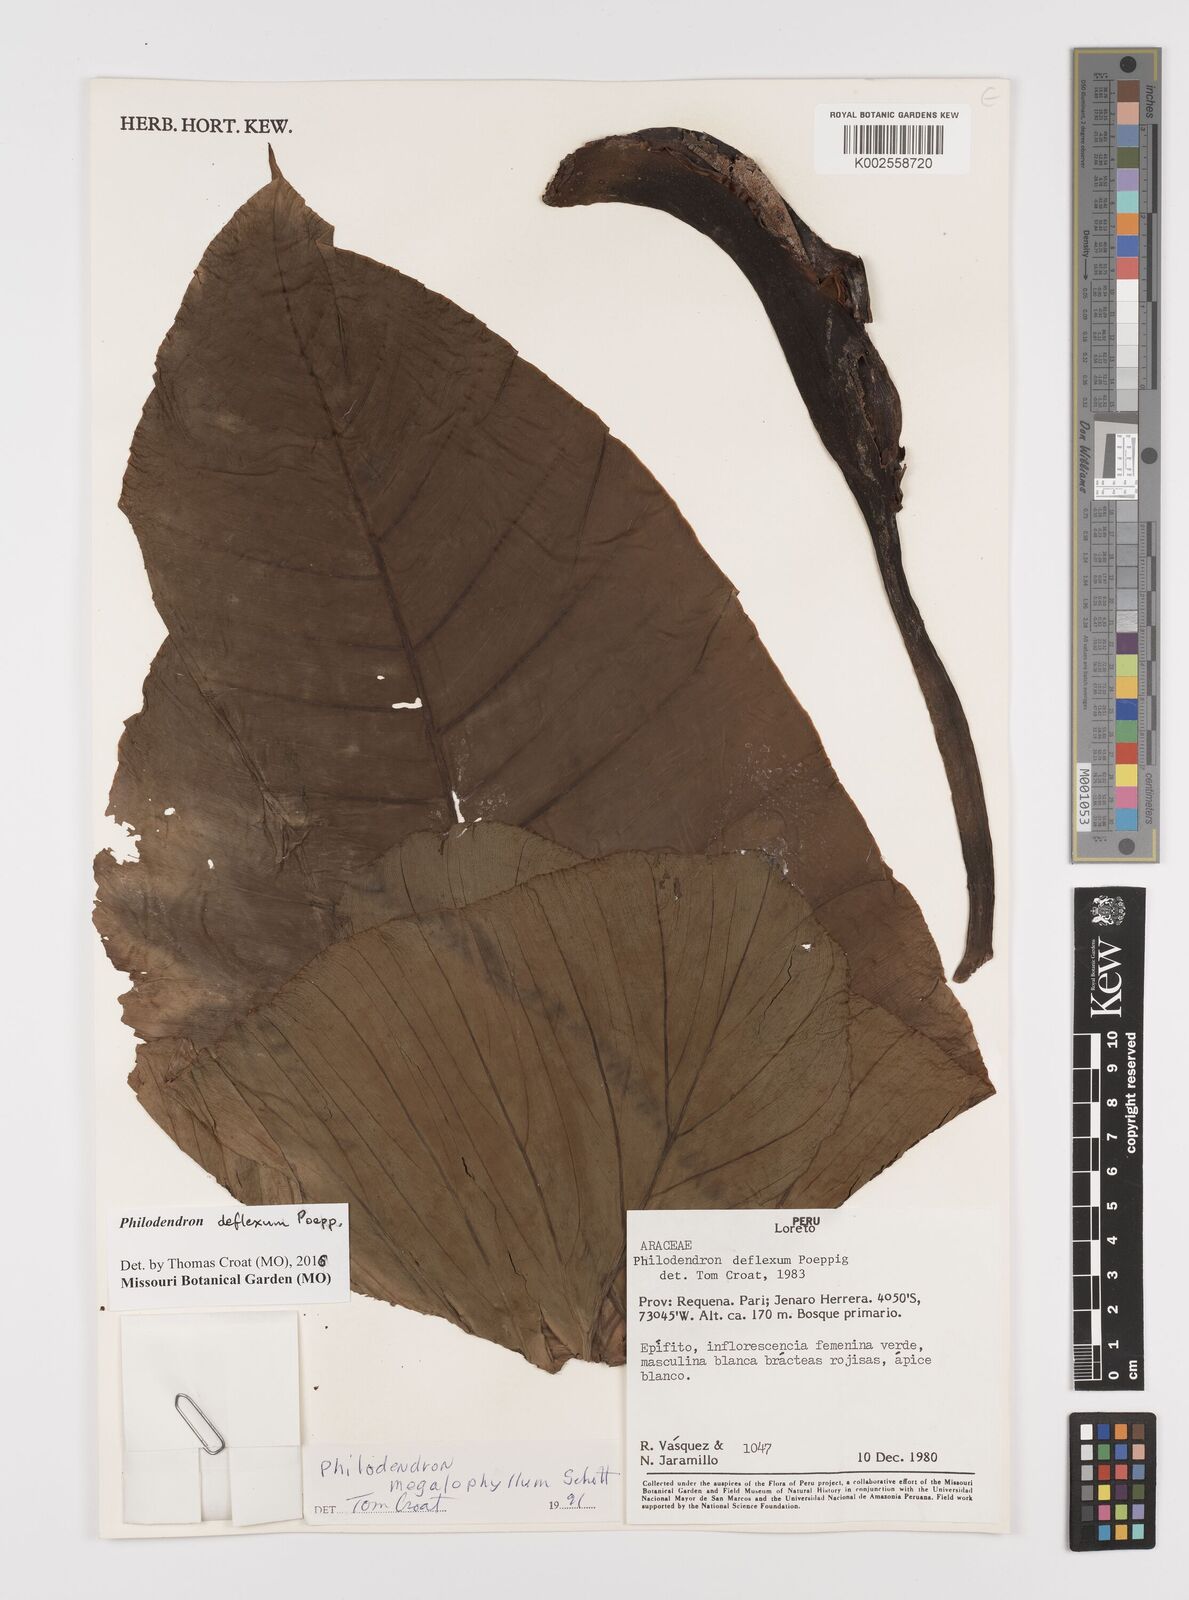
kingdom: Plantae
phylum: Tracheophyta
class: Liliopsida
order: Alismatales
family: Araceae
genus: Philodendron
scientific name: Philodendron deflexum
